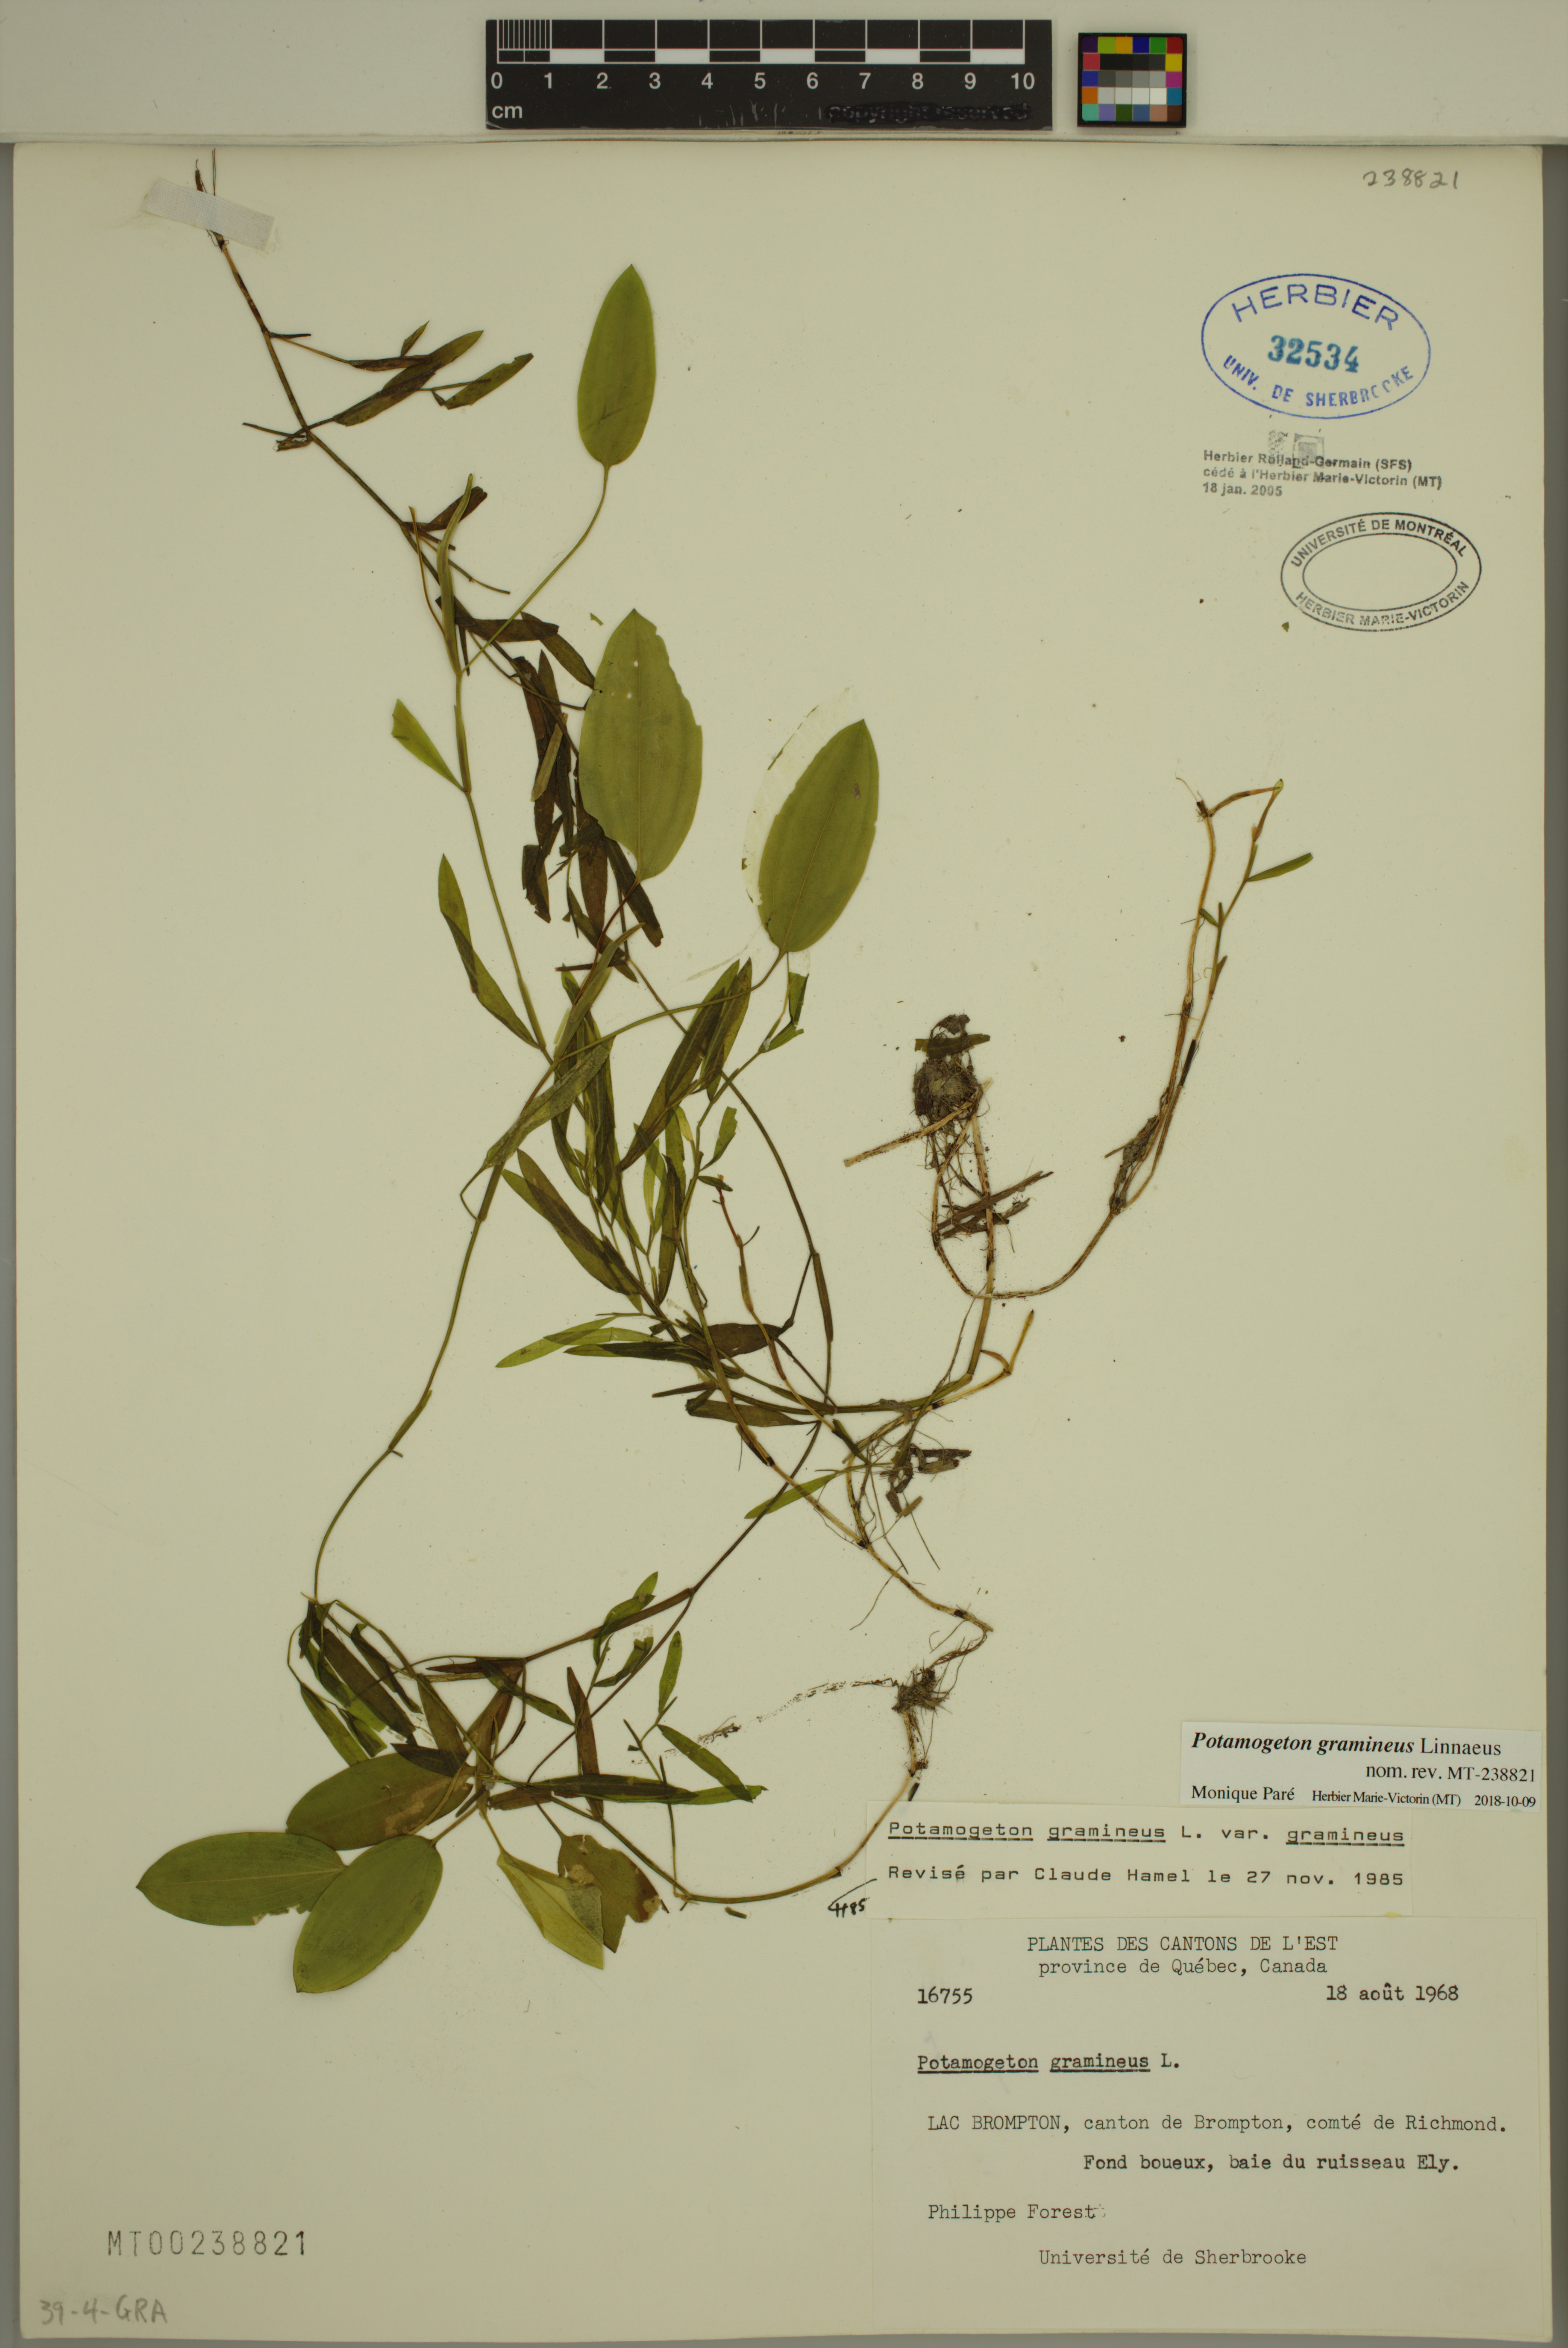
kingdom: Plantae
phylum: Tracheophyta
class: Liliopsida
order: Alismatales
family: Potamogetonaceae
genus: Potamogeton
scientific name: Potamogeton gramineus
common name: Various-leaved pondweed
